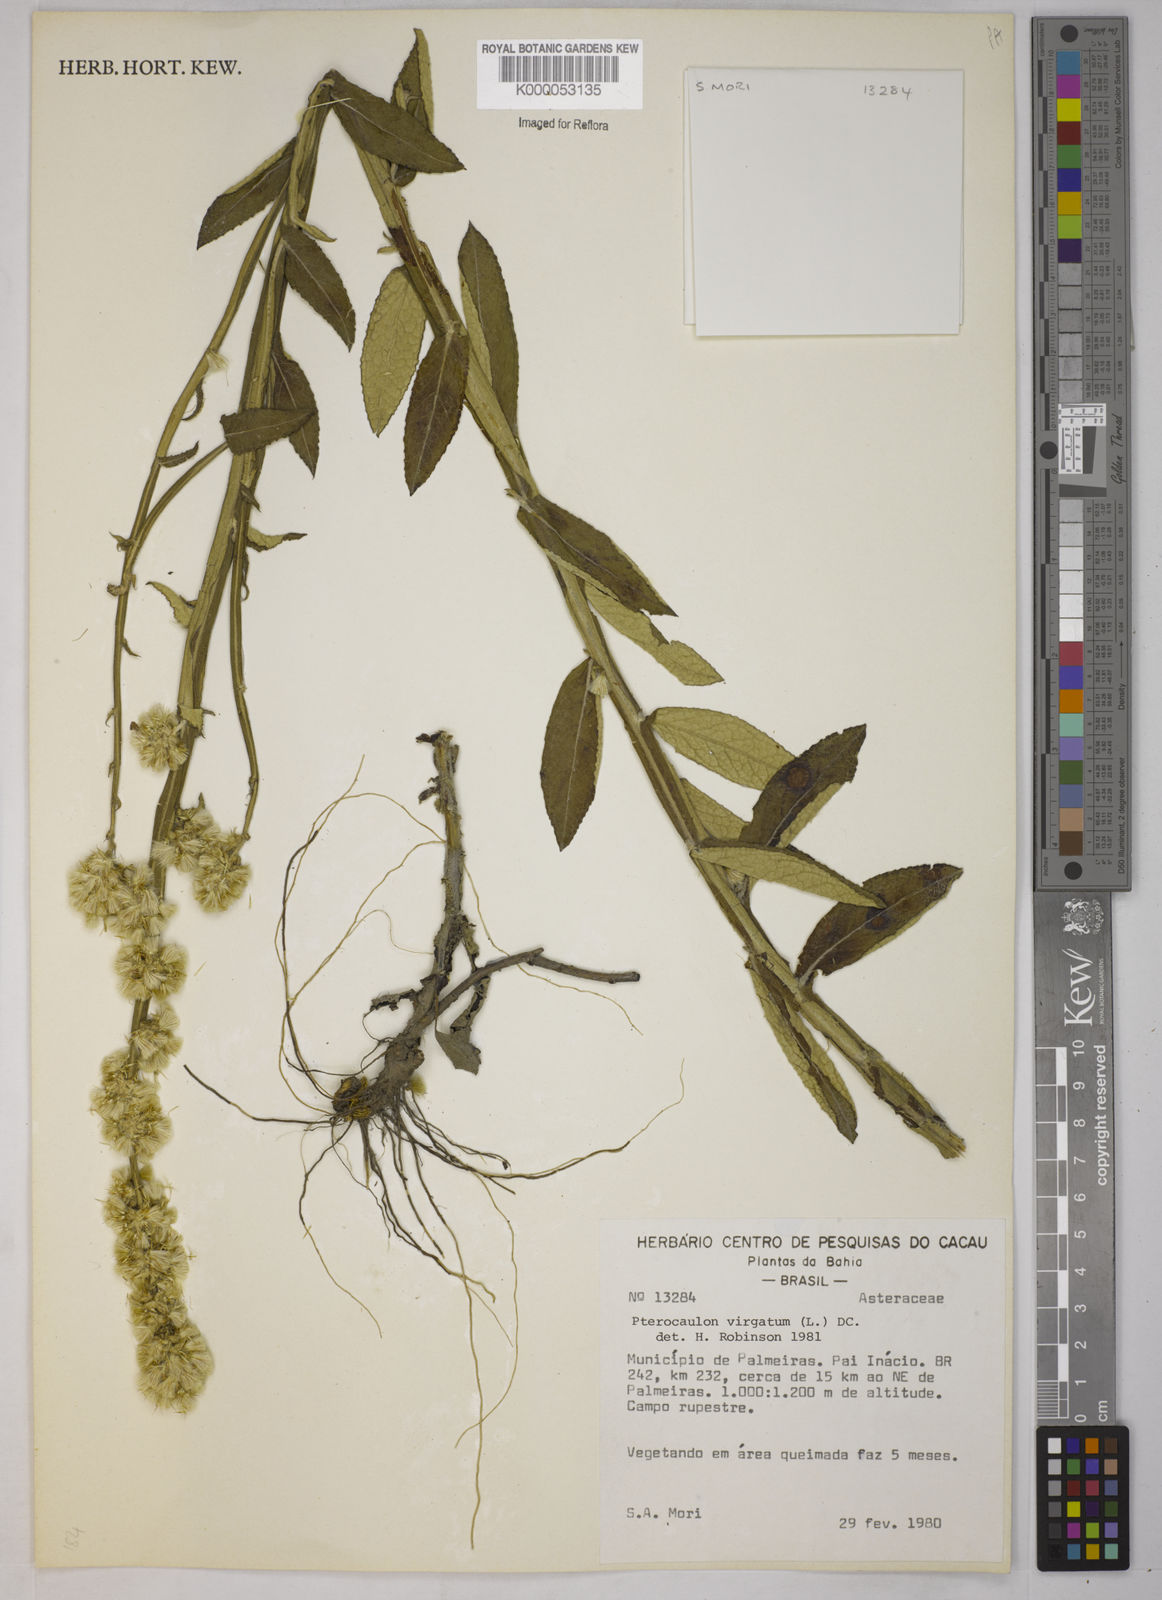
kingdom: Plantae
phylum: Tracheophyta
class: Magnoliopsida
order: Asterales
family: Asteraceae
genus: Pterocaulon
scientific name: Pterocaulon alopecuroides
